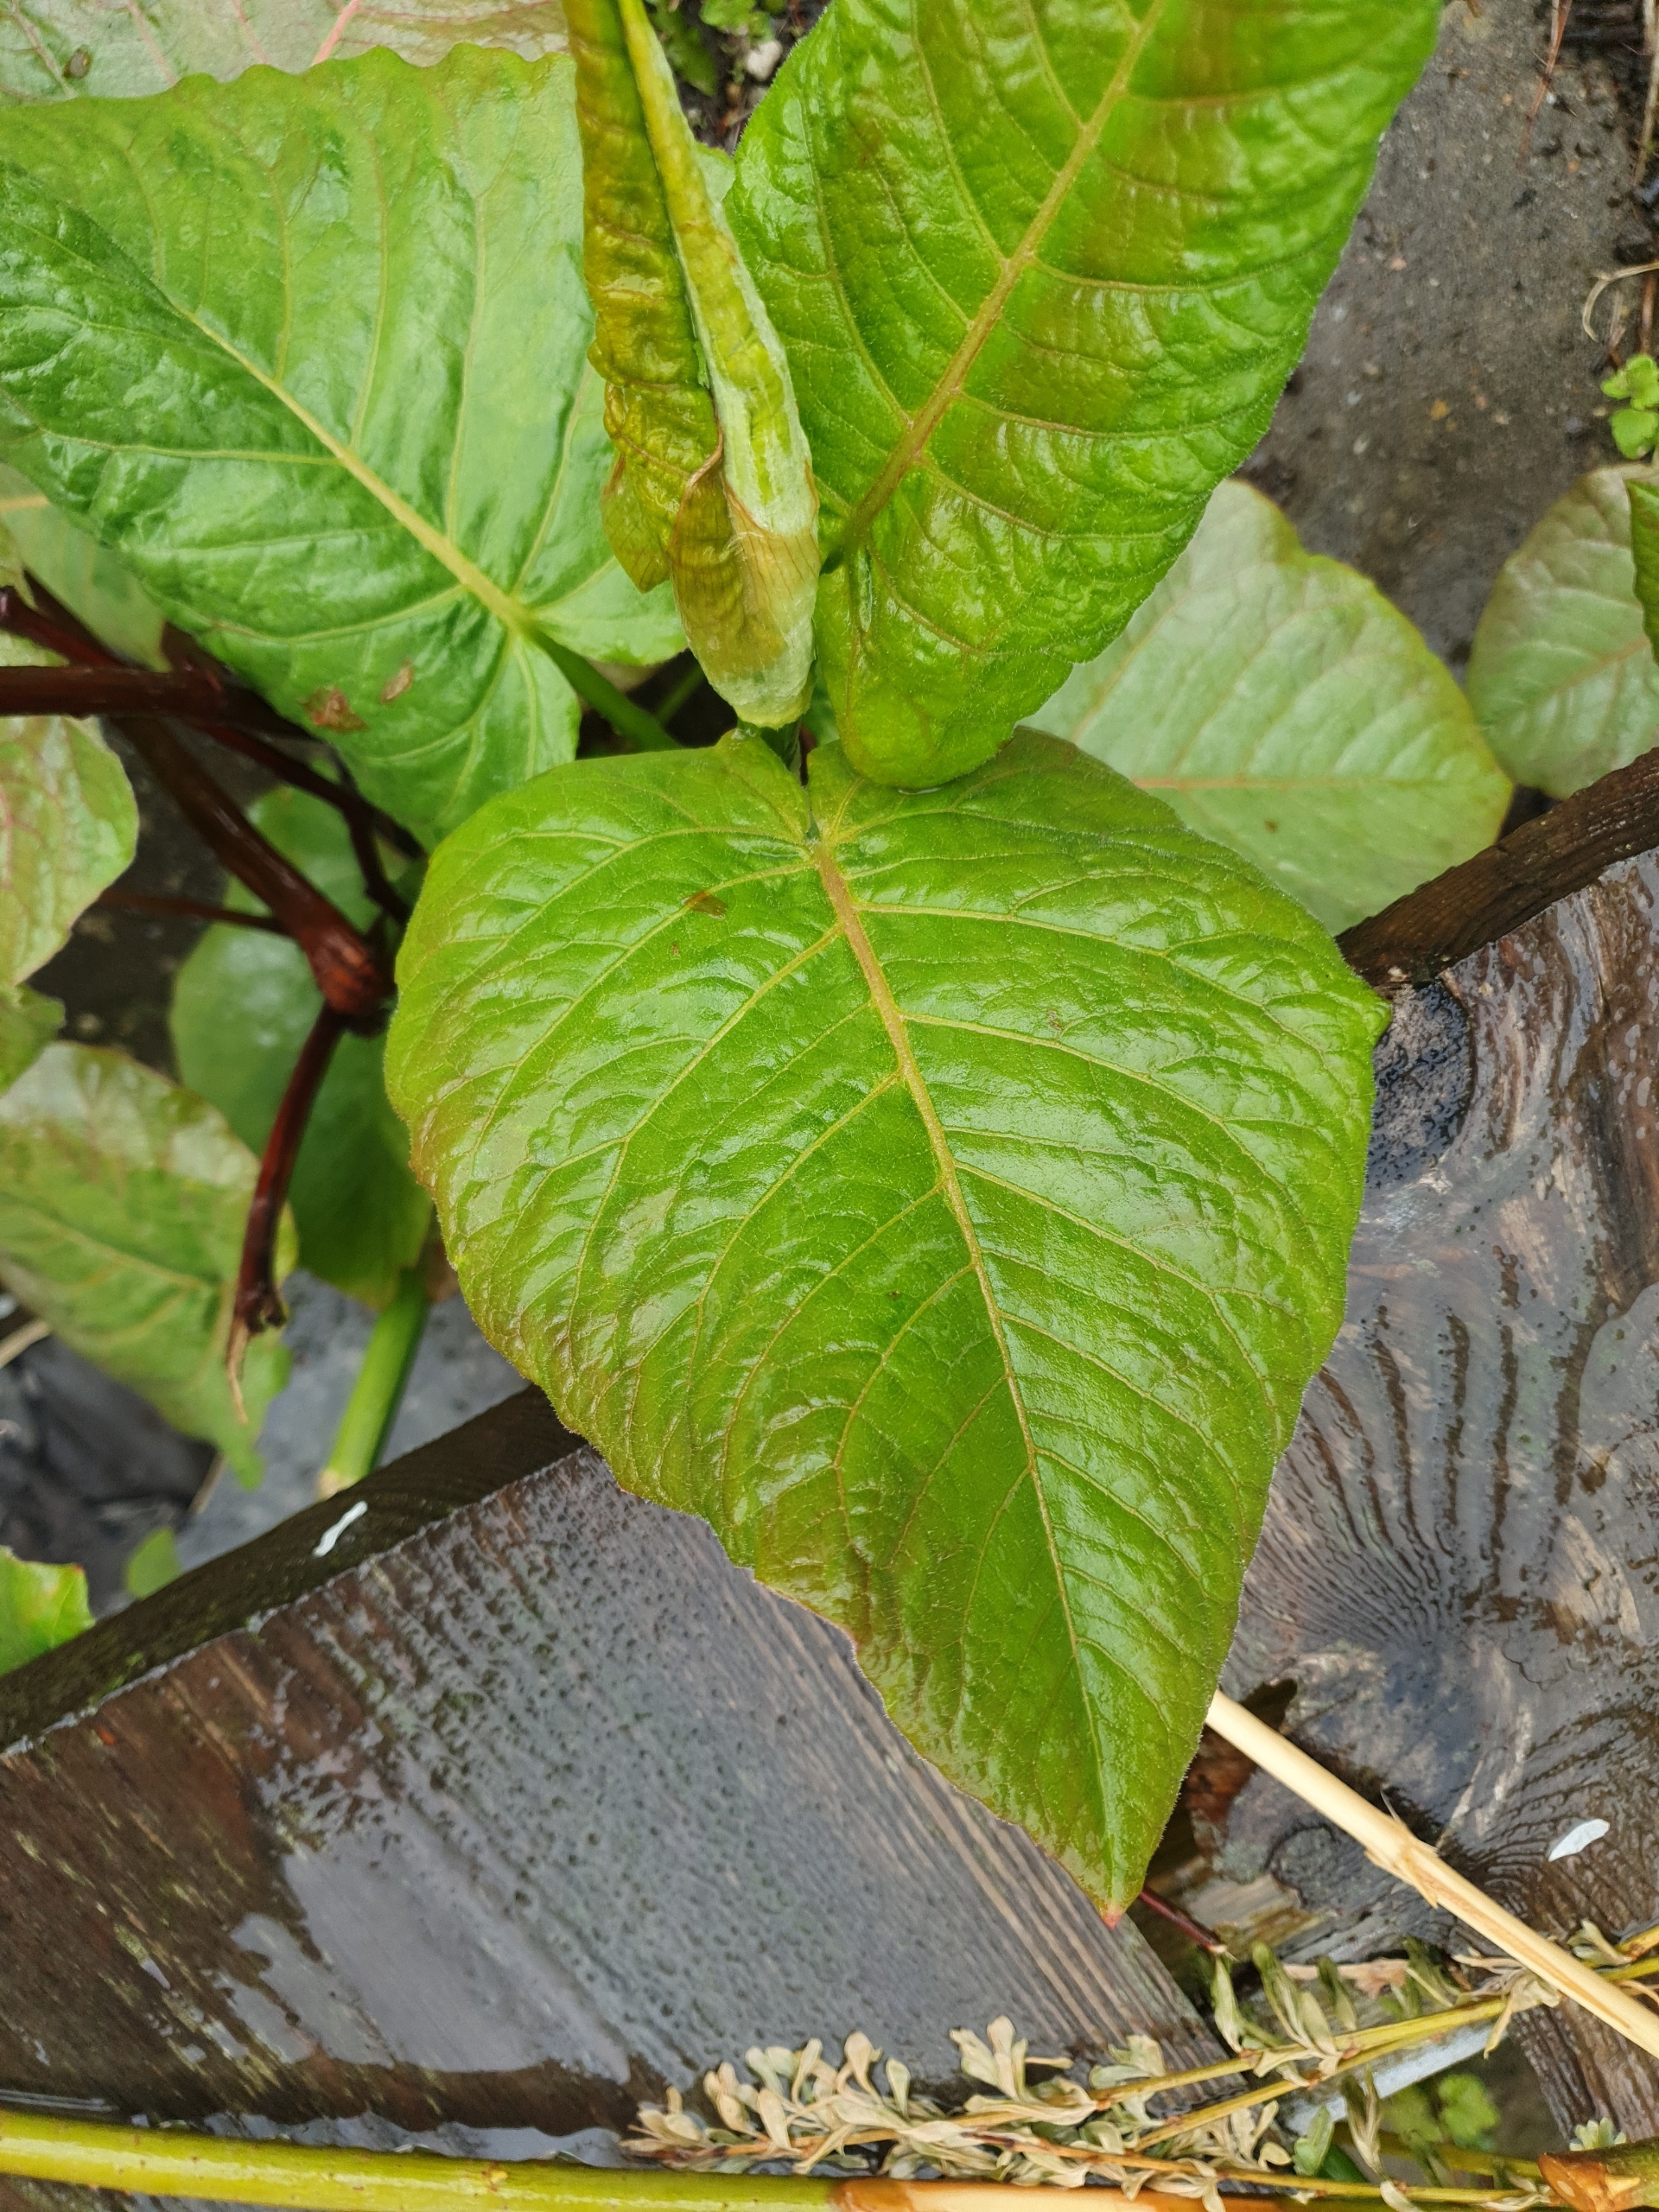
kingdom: Plantae
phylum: Tracheophyta
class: Magnoliopsida
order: Caryophyllales
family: Polygonaceae
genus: Reynoutria
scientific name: Reynoutria sachalinensis
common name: Kæmpe-pileurt
